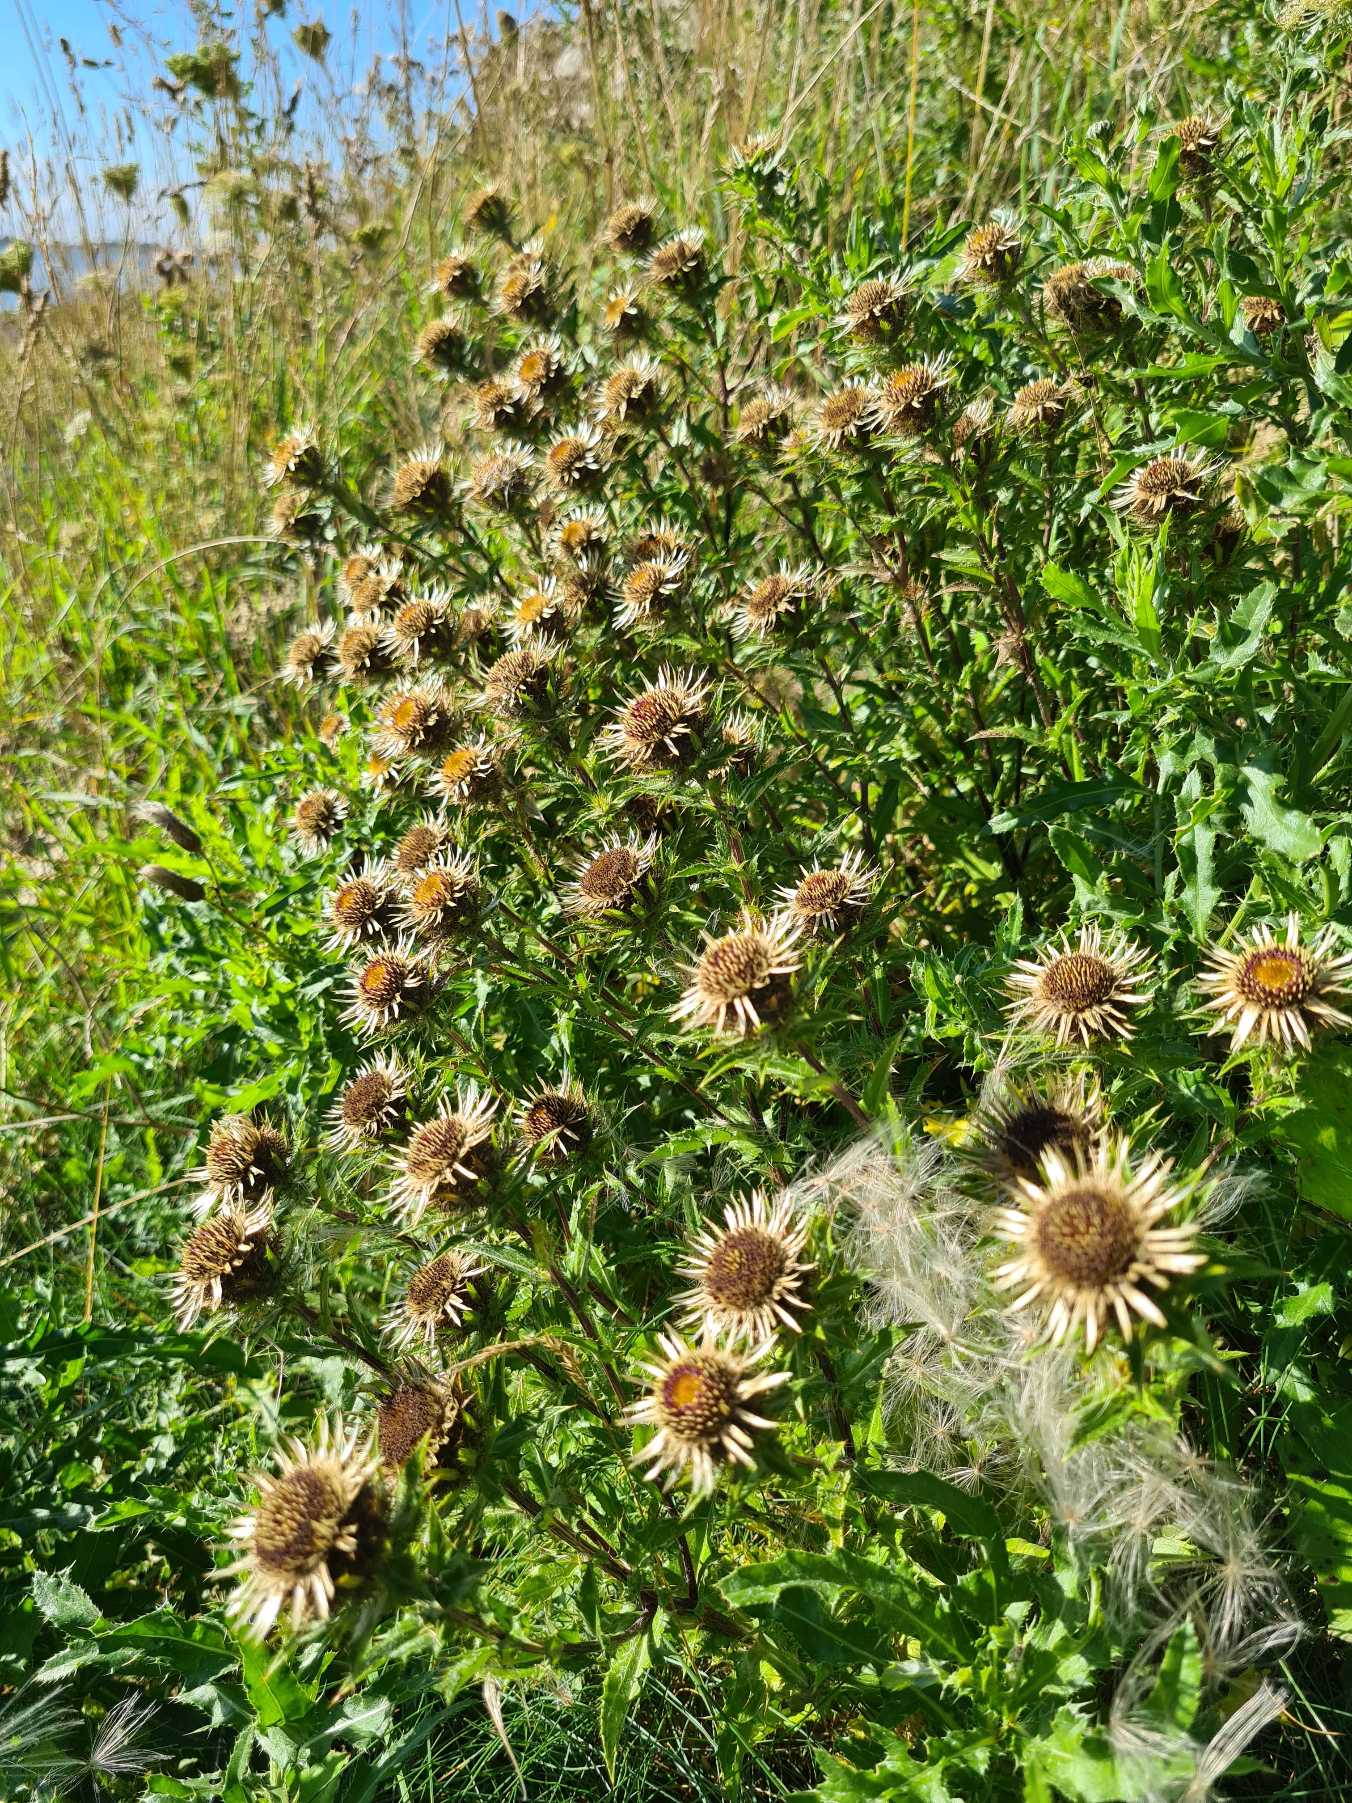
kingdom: Plantae
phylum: Tracheophyta
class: Magnoliopsida
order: Asterales
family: Asteraceae
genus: Carlina
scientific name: Carlina vulgaris
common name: Bakketidsel (underart)
